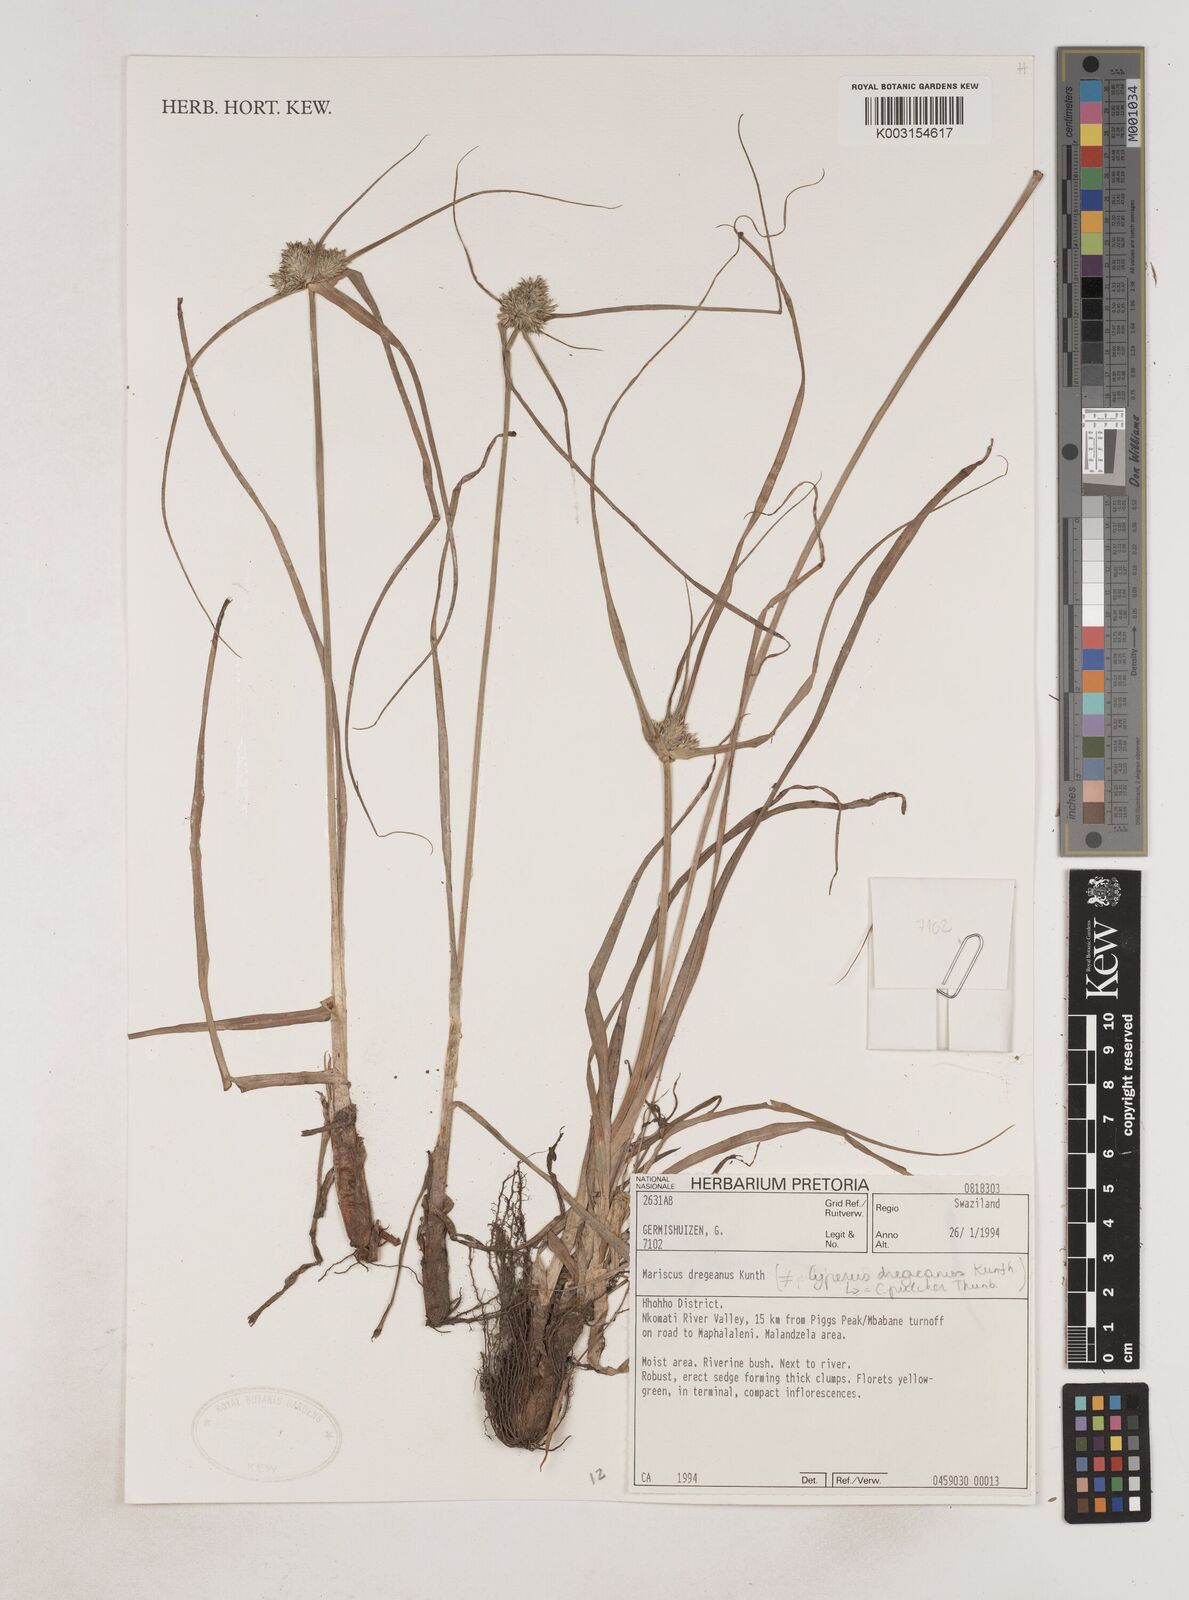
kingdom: Plantae
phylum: Tracheophyta
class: Liliopsida
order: Poales
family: Cyperaceae
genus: Cyperus
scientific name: Cyperus dubius
